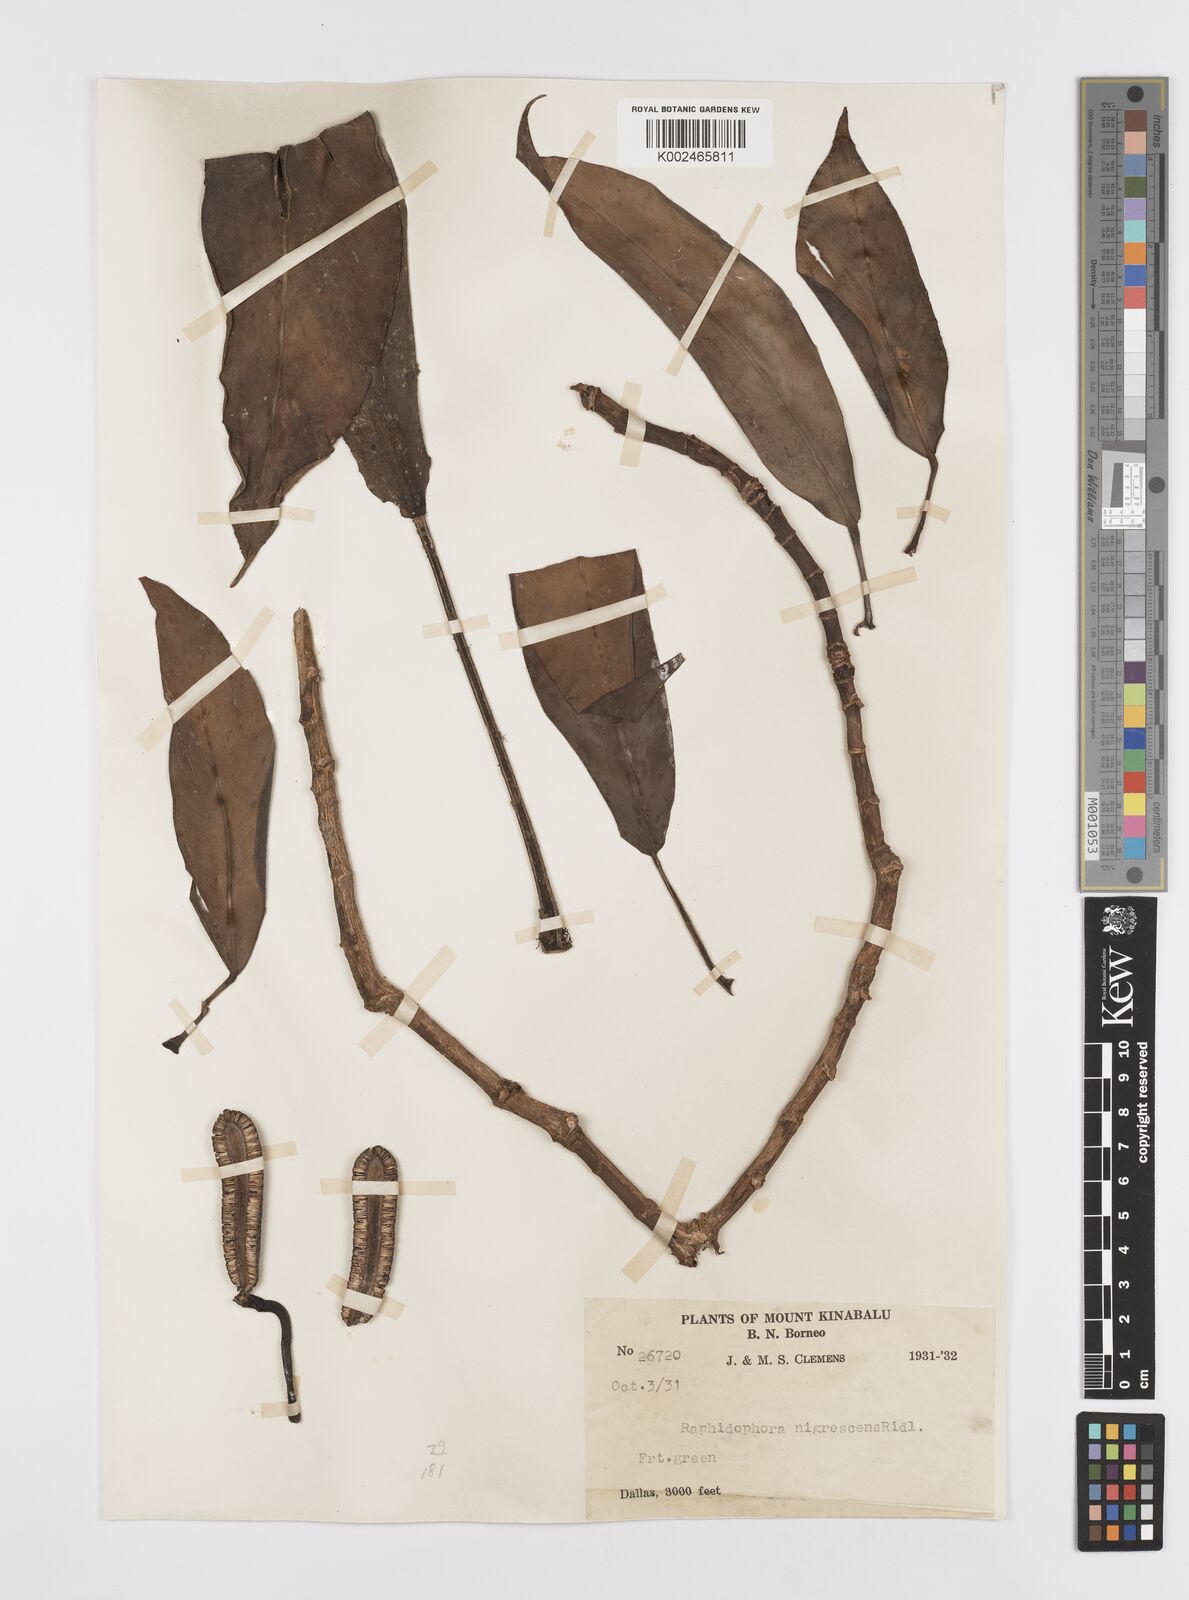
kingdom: Plantae
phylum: Tracheophyta
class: Liliopsida
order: Alismatales
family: Araceae
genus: Rhaphidophora
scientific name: Rhaphidophora sylvestris
